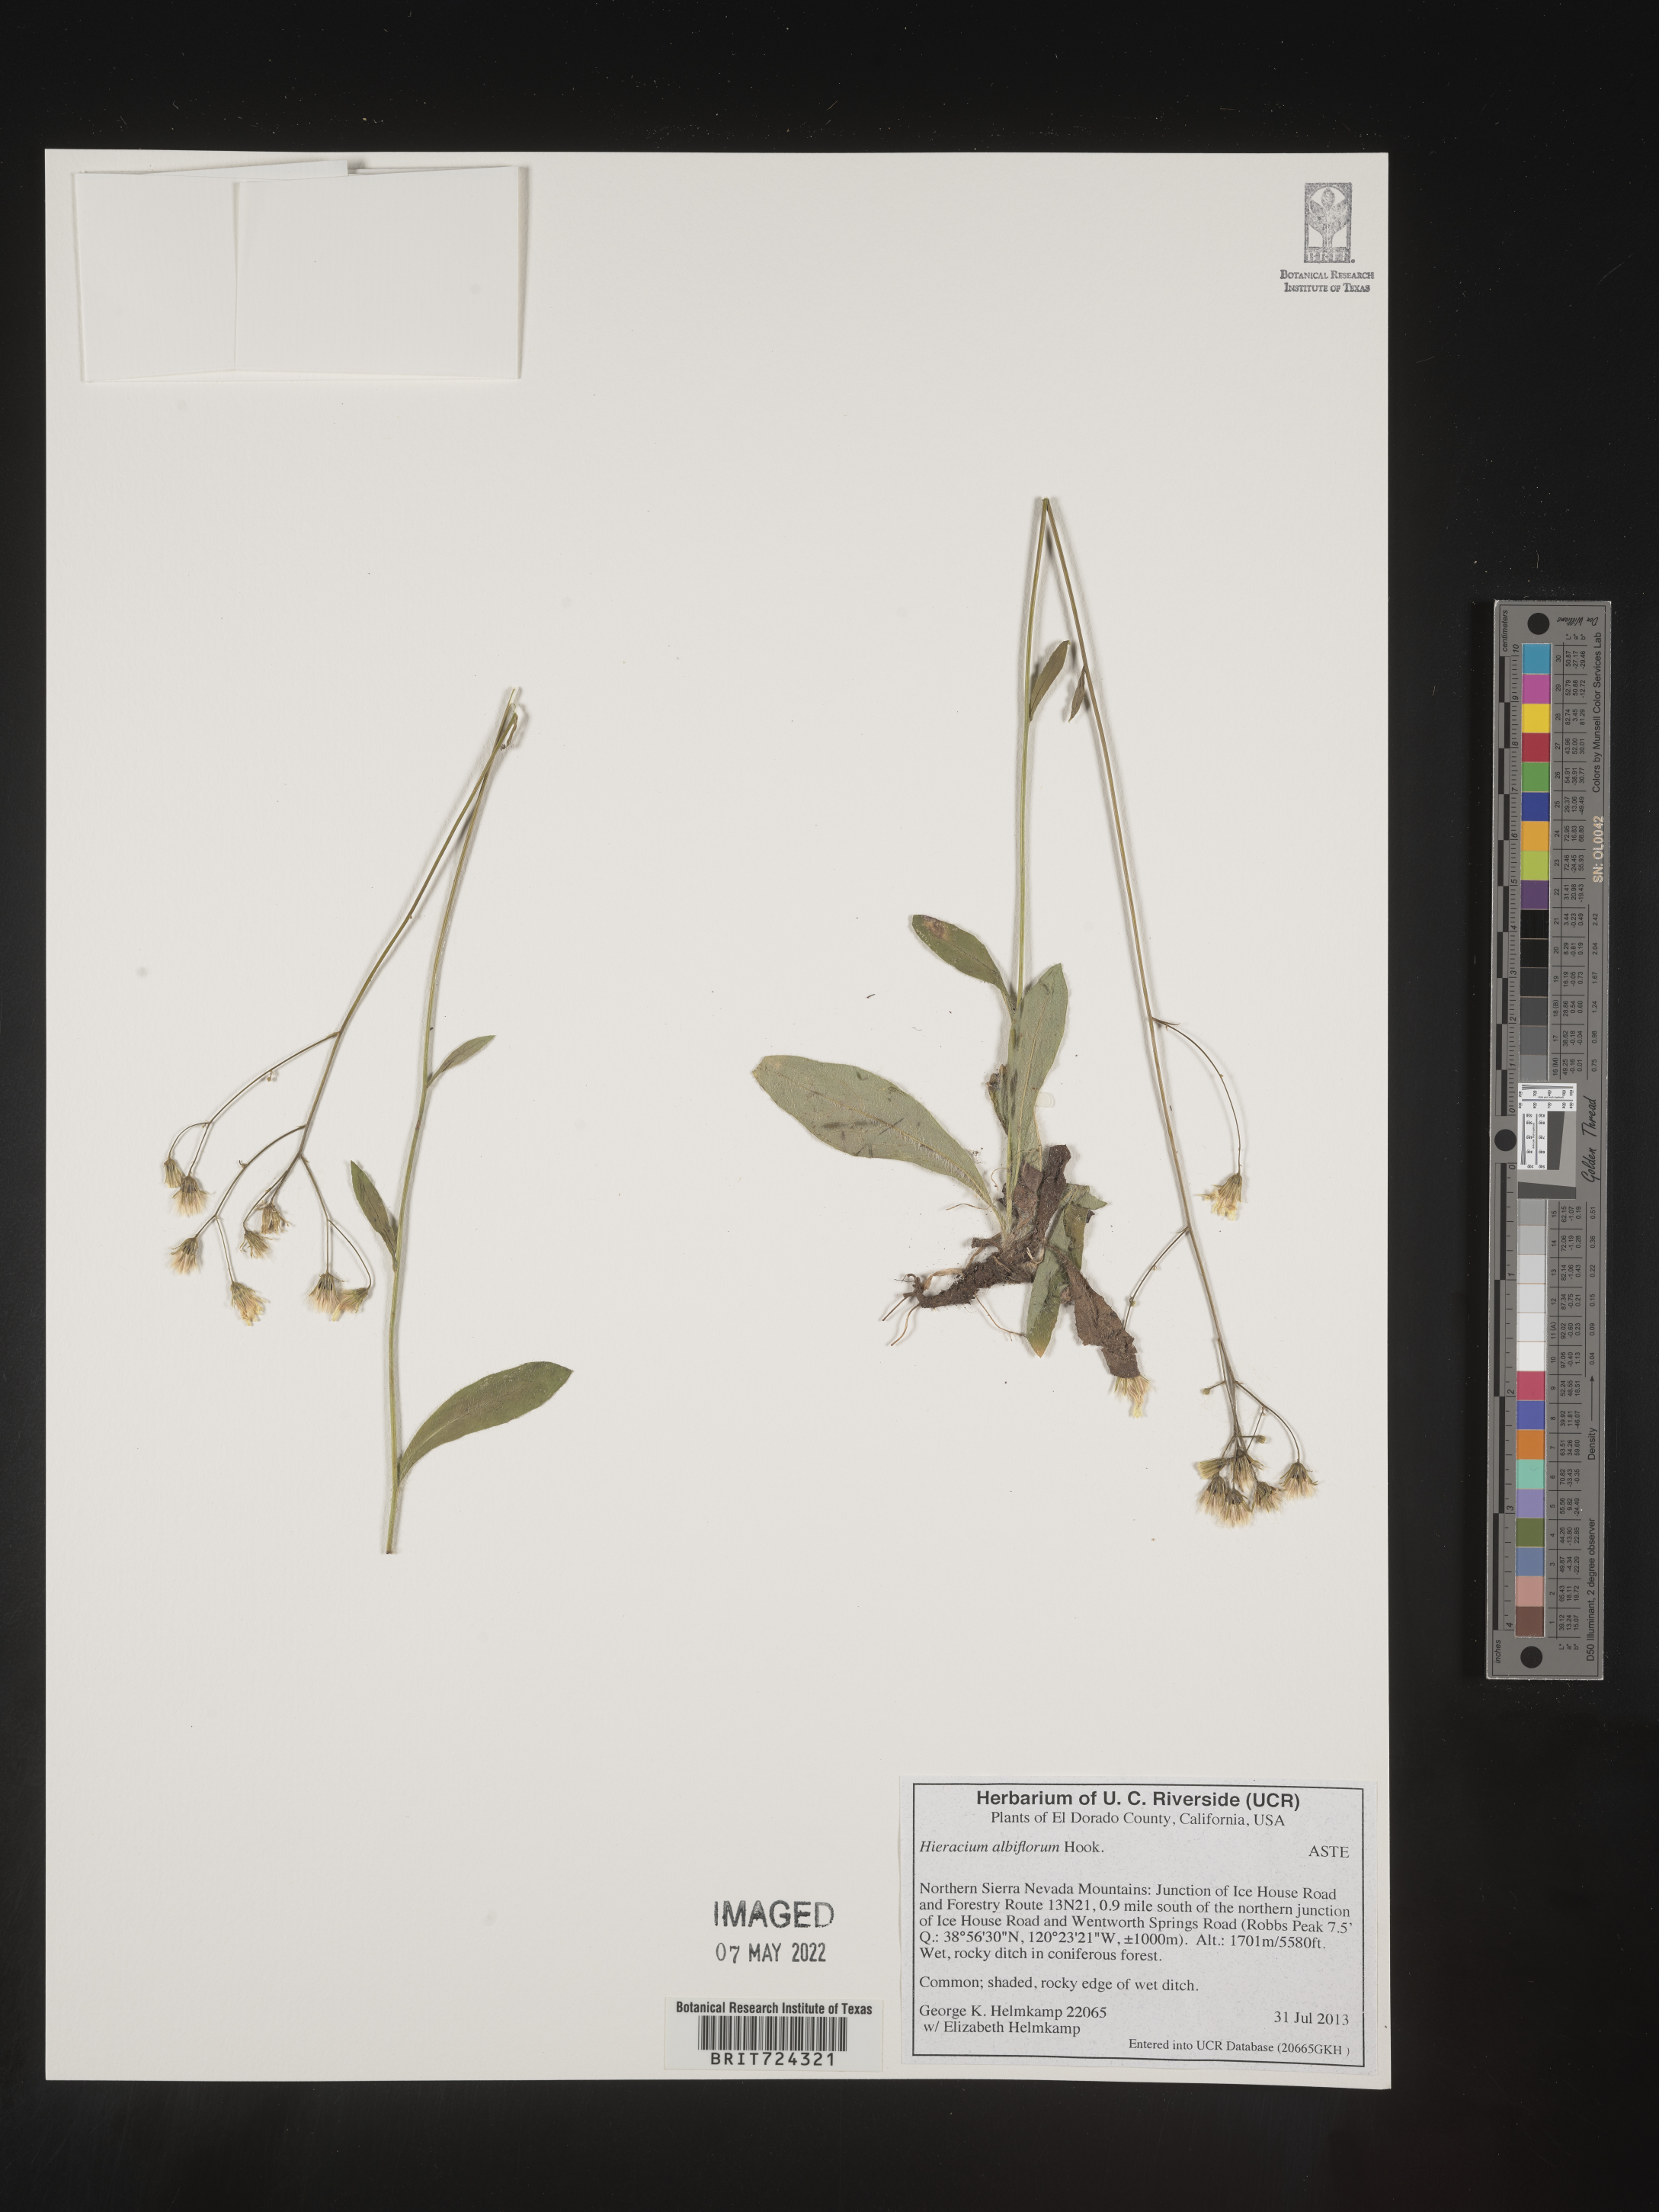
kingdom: Plantae
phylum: Tracheophyta
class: Magnoliopsida
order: Asterales
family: Asteraceae
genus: Hieracium
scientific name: Hieracium
